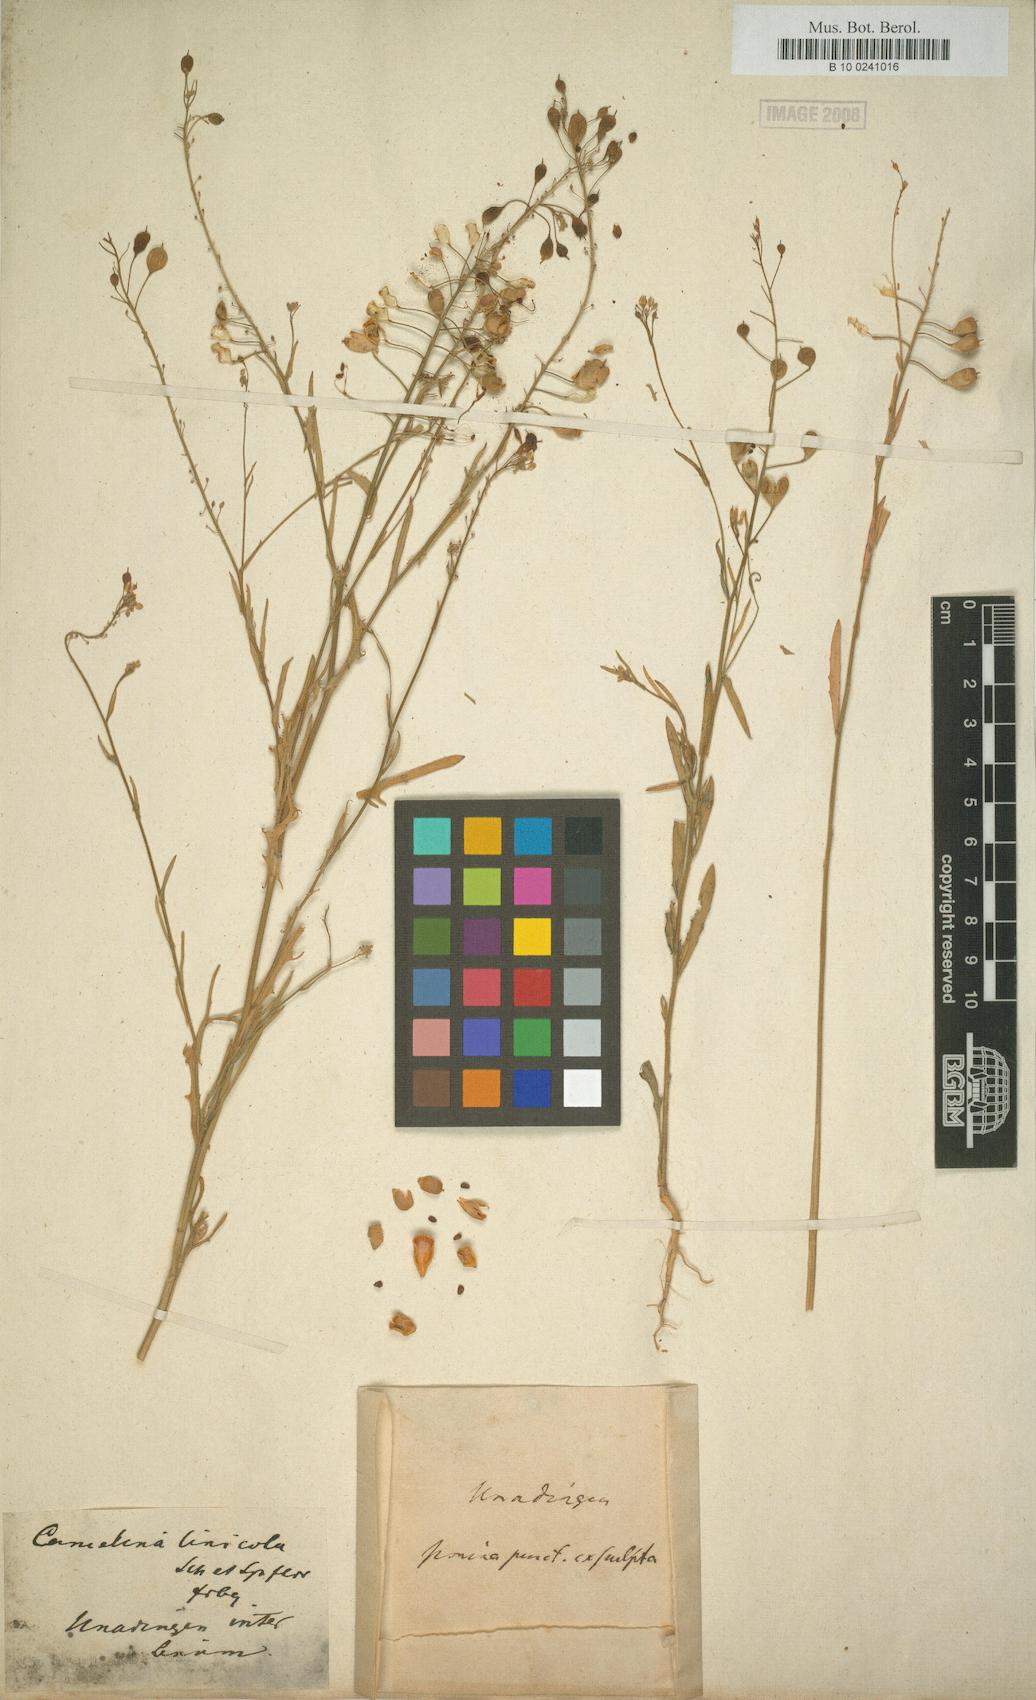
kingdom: Plantae
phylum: Tracheophyta
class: Magnoliopsida
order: Brassicales
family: Brassicaceae
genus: Camelina
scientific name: Camelina alyssum
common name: Gold-of-pleasure
